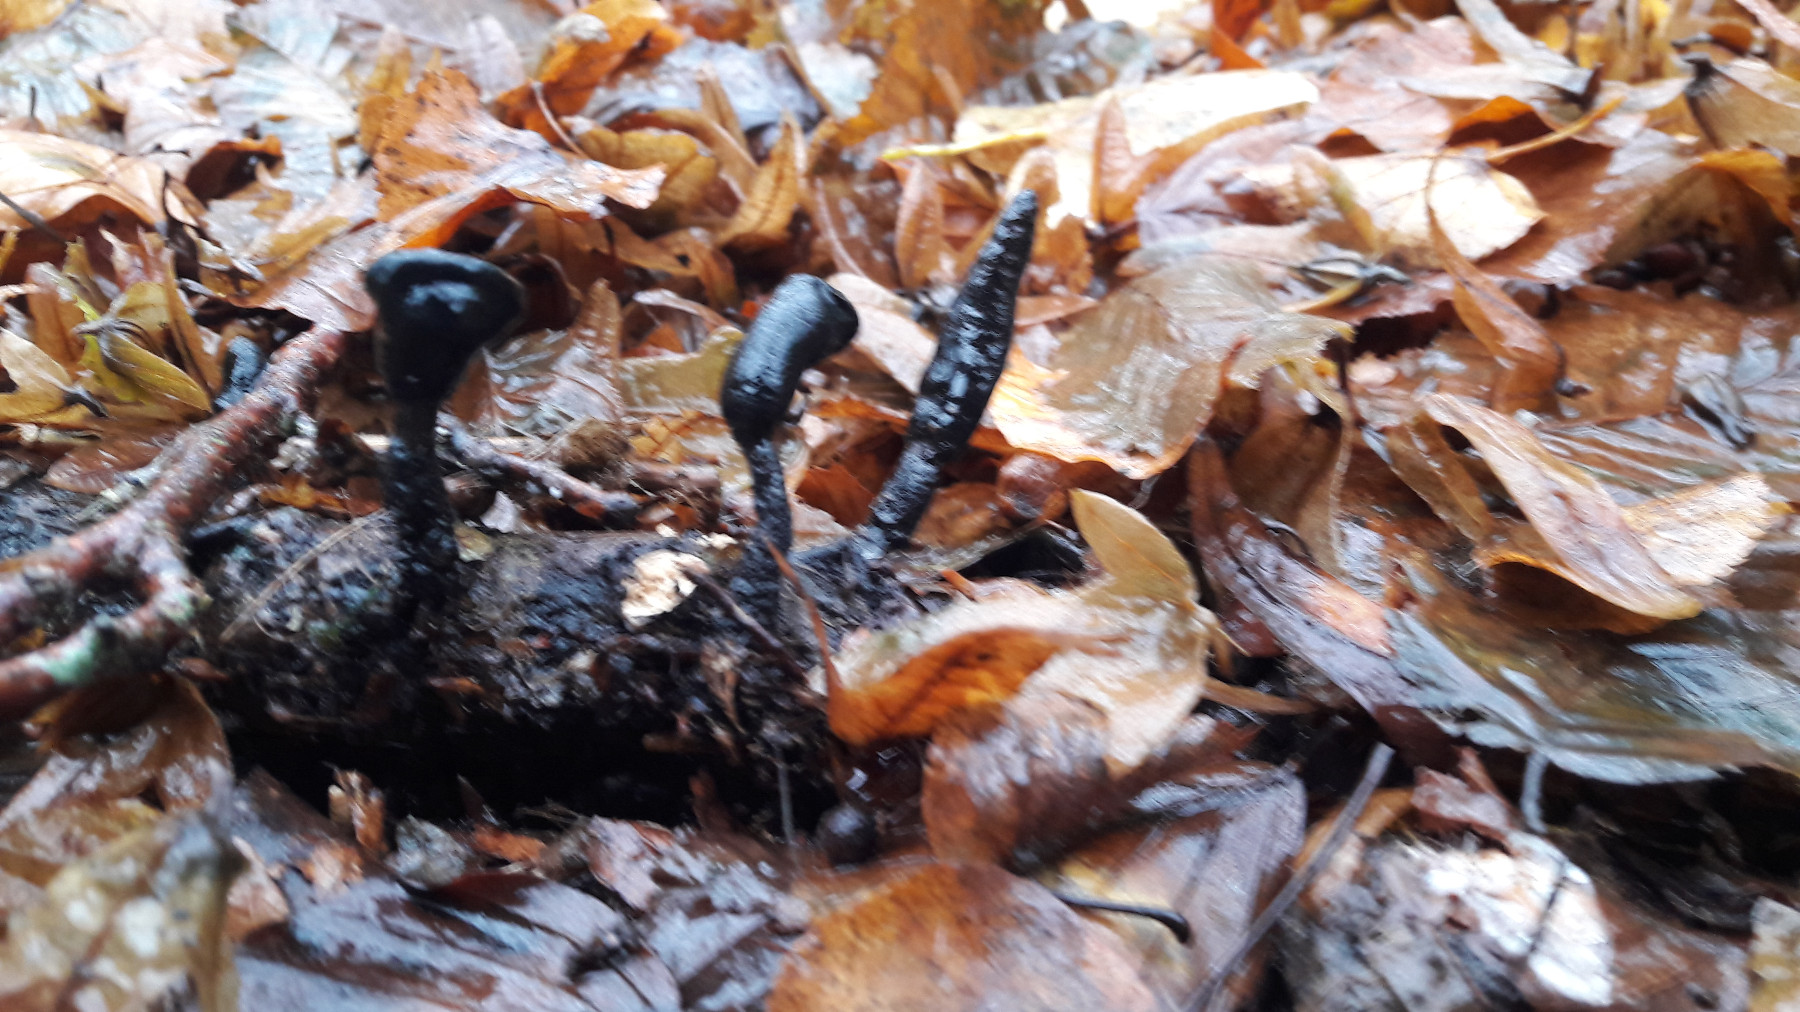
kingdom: Fungi
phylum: Ascomycota
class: Sordariomycetes
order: Xylariales
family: Xylariaceae
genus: Xylaria
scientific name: Xylaria longipes
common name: slank stødsvamp
